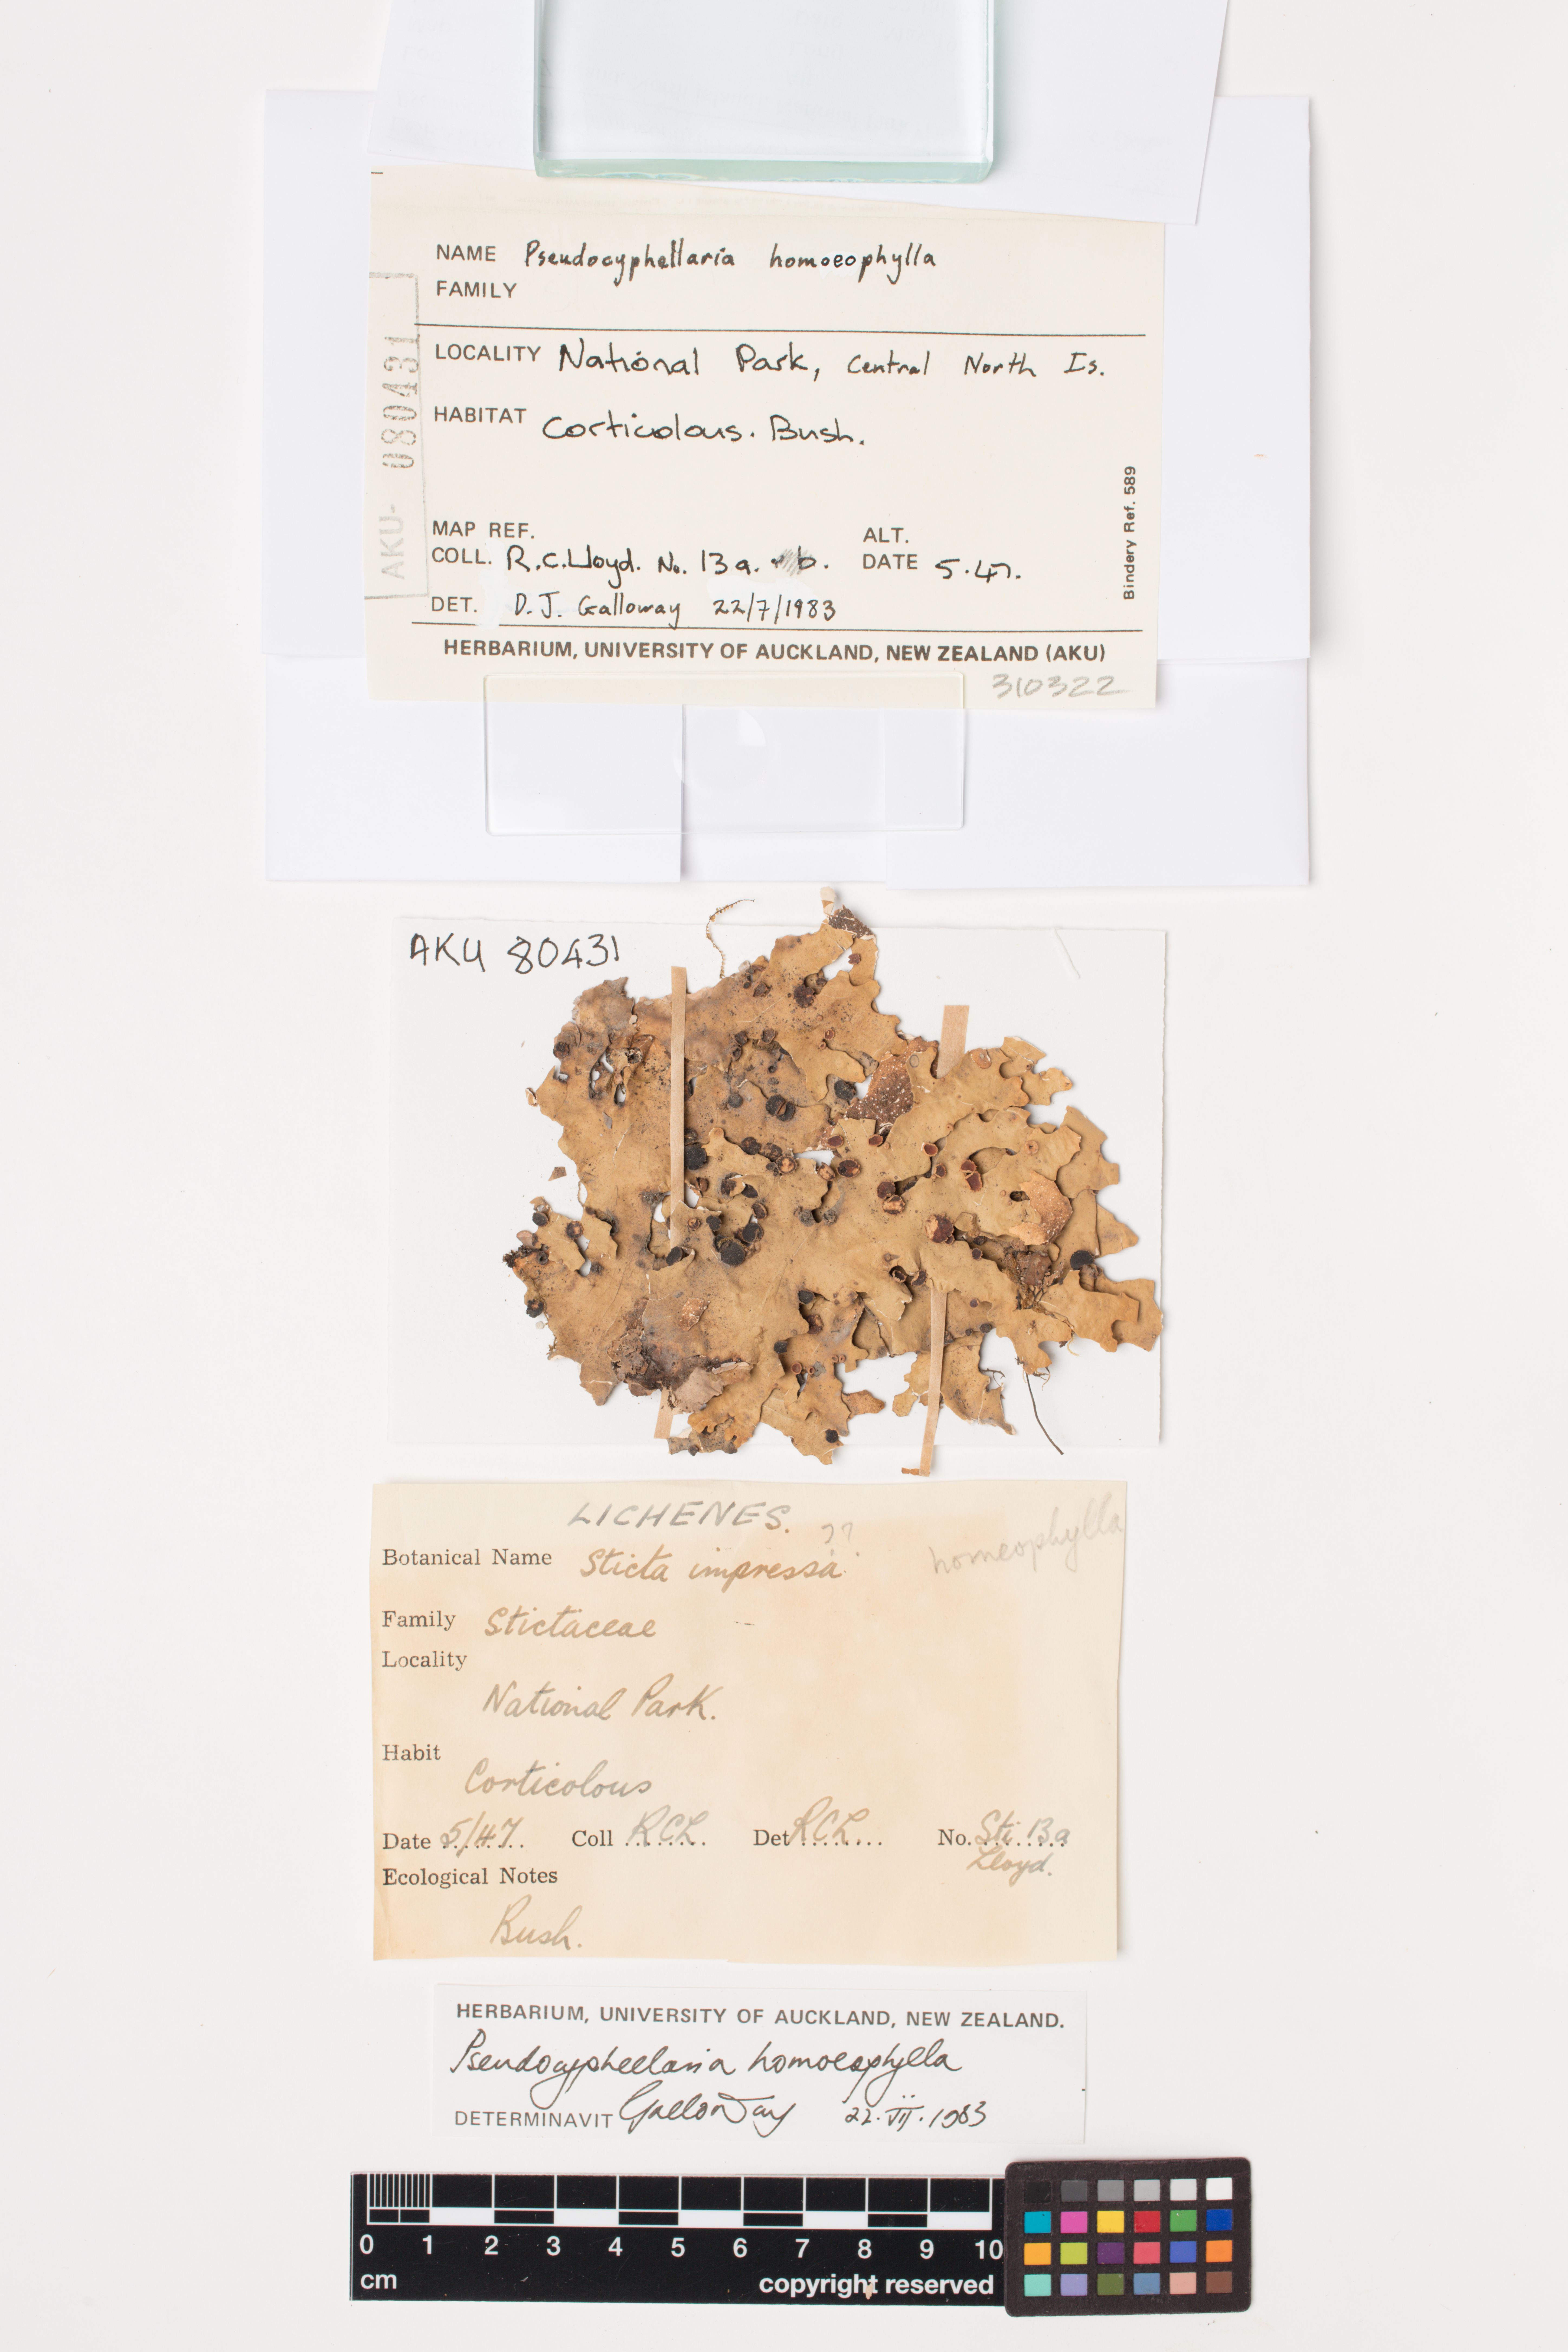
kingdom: Fungi
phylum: Ascomycota
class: Lecanoromycetes
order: Peltigerales
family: Lobariaceae
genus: Pseudocyphellaria
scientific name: Pseudocyphellaria homeophylla
